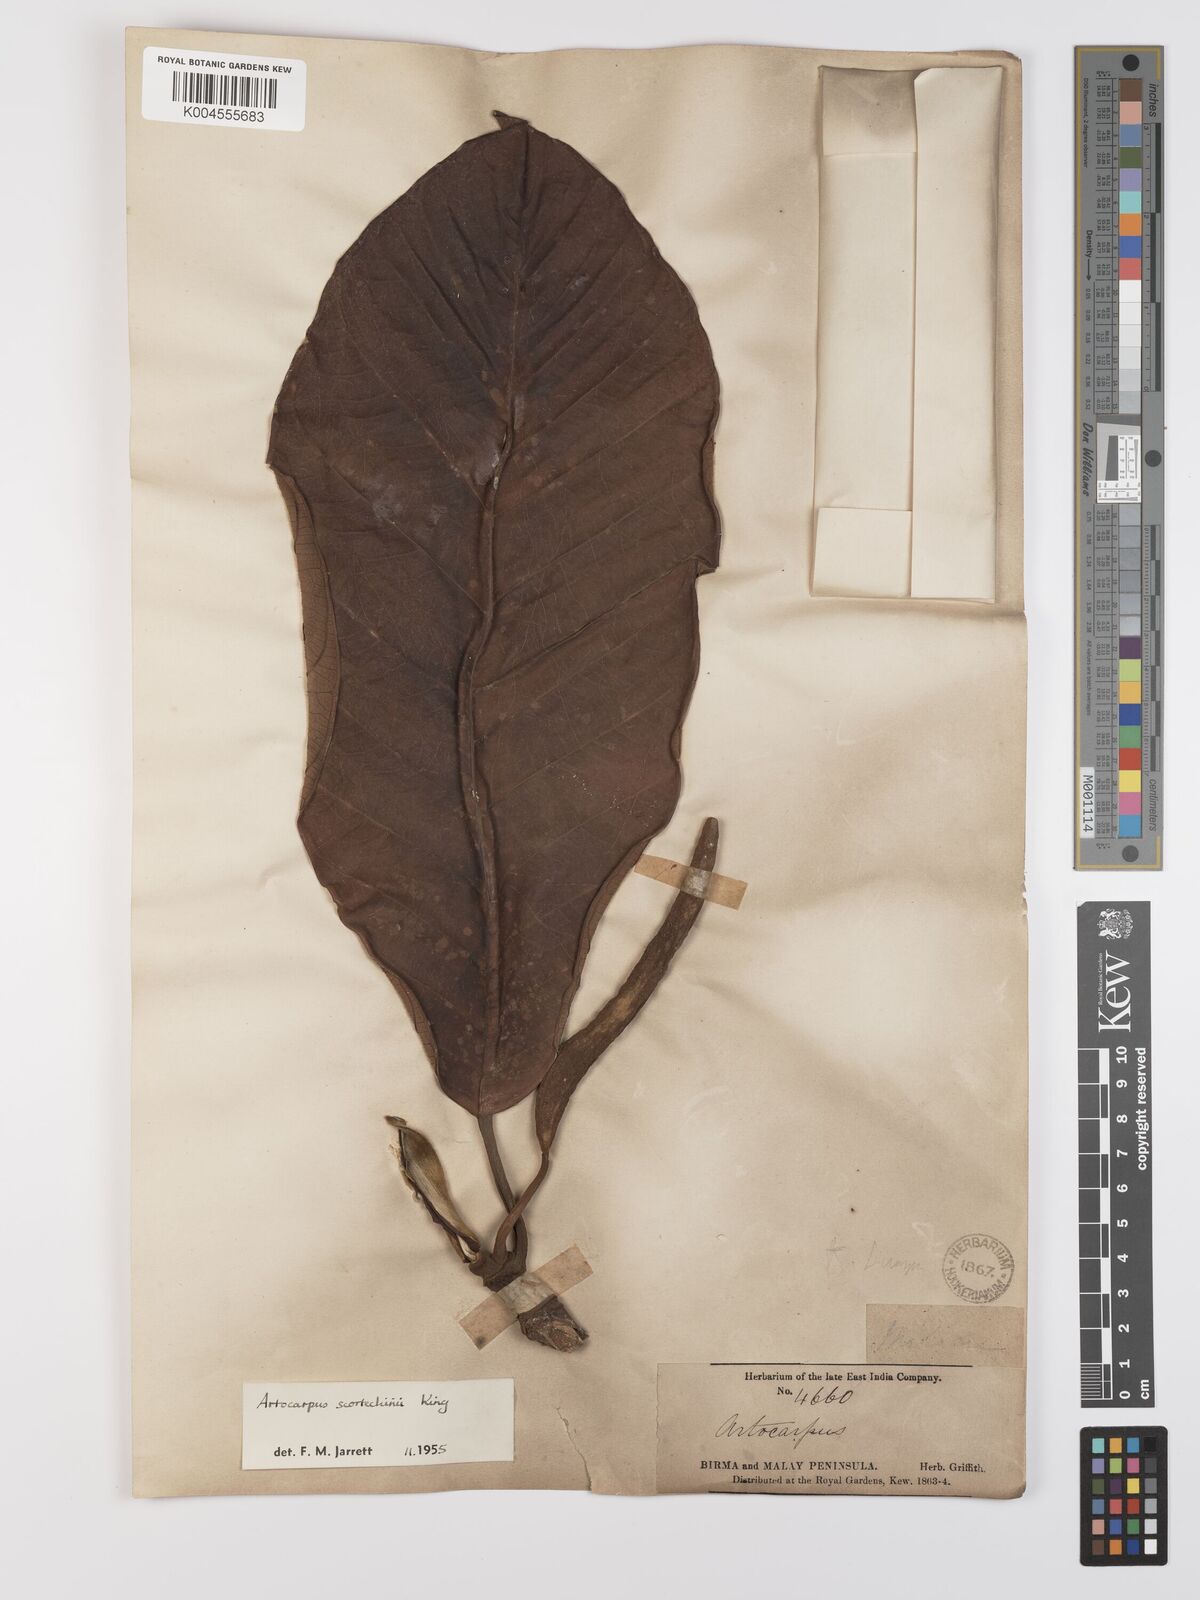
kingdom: Plantae
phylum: Tracheophyta
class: Magnoliopsida
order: Rosales
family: Moraceae
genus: Artocarpus
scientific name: Artocarpus elasticus
